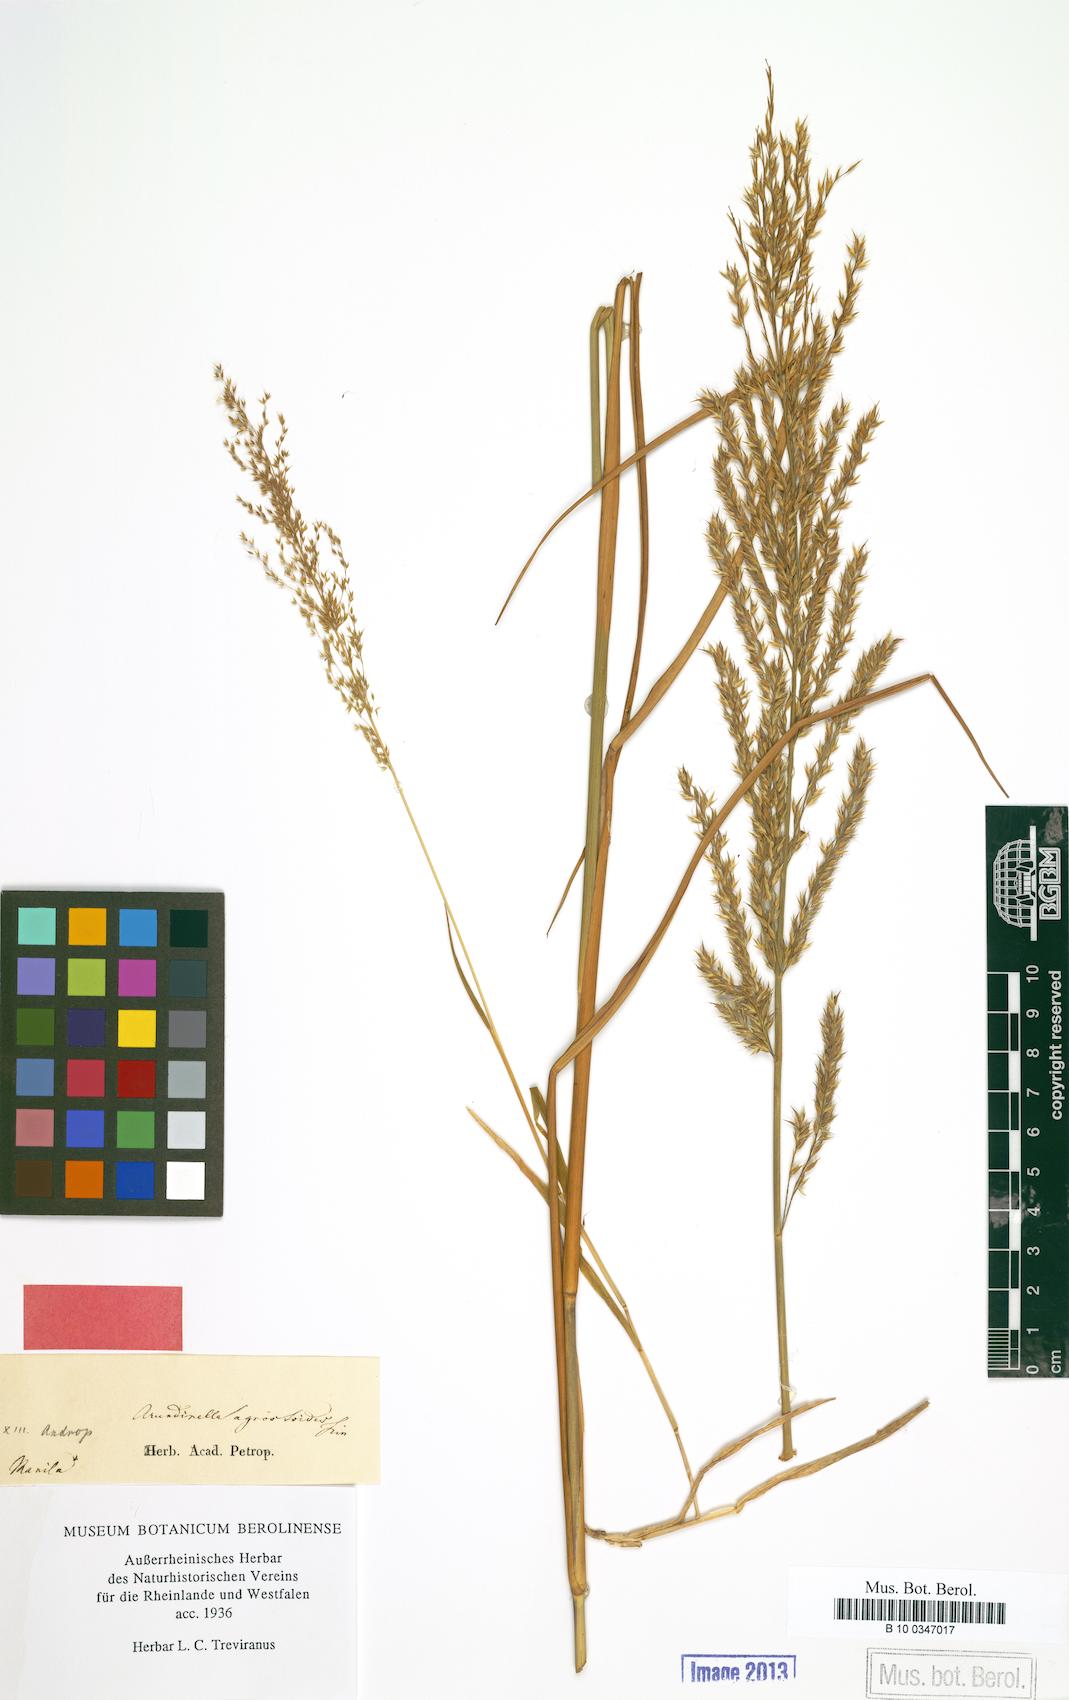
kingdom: Plantae
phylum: Tracheophyta
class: Liliopsida
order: Poales
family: Poaceae
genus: Arundinella
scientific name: Arundinella holcoides
